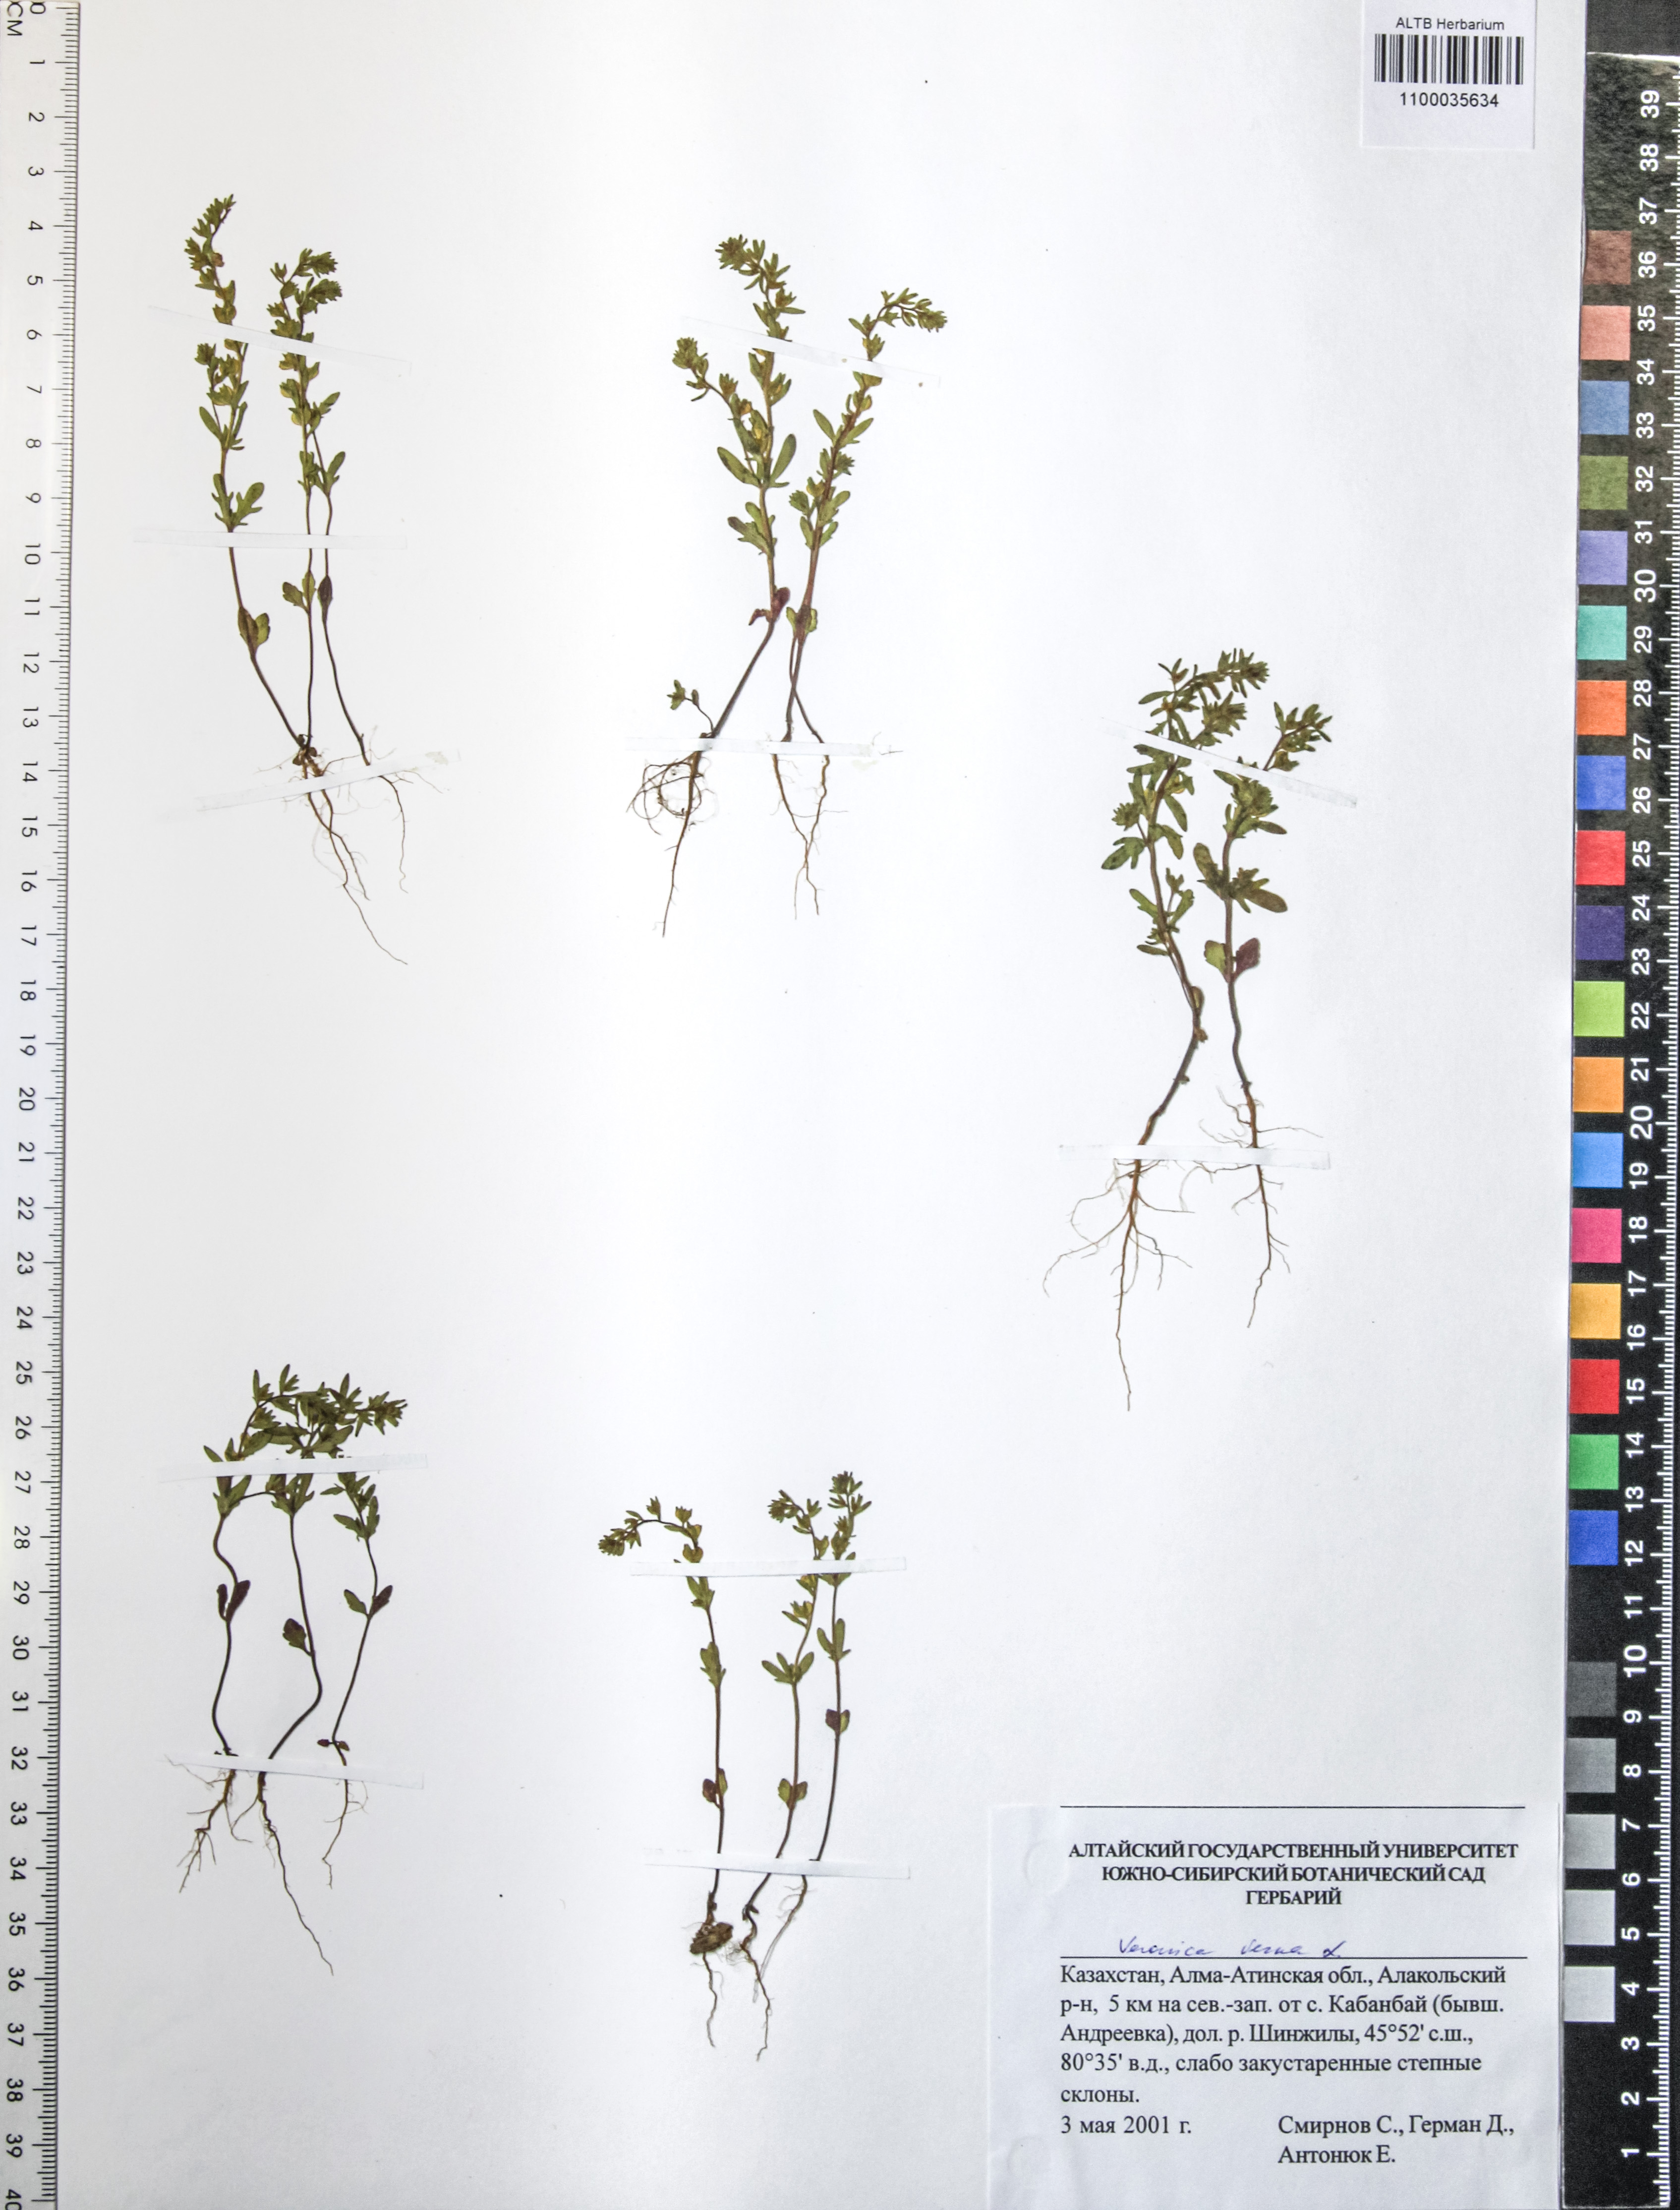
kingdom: Plantae
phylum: Tracheophyta
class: Magnoliopsida
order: Lamiales
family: Plantaginaceae
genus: Veronica
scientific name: Veronica verna
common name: Spring speedwell
